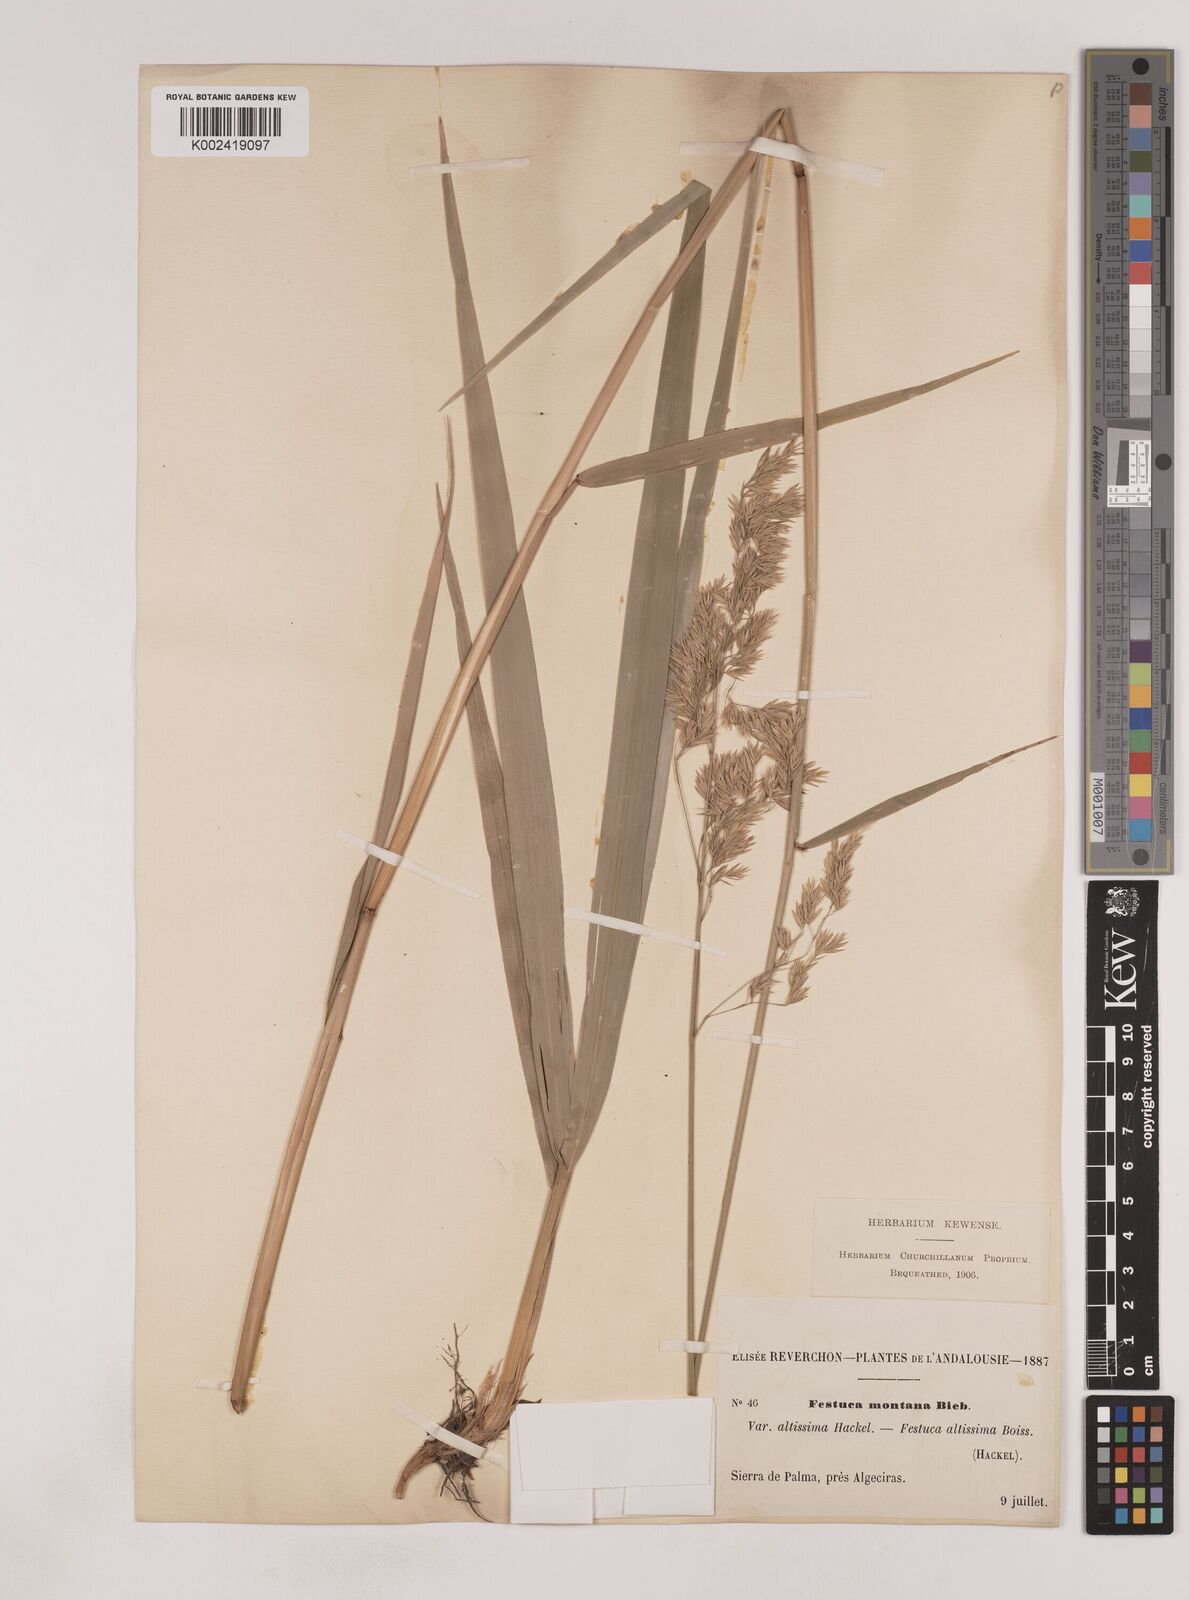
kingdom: Plantae
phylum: Tracheophyta
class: Liliopsida
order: Poales
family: Poaceae
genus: Festuca
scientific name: Festuca drymeja
